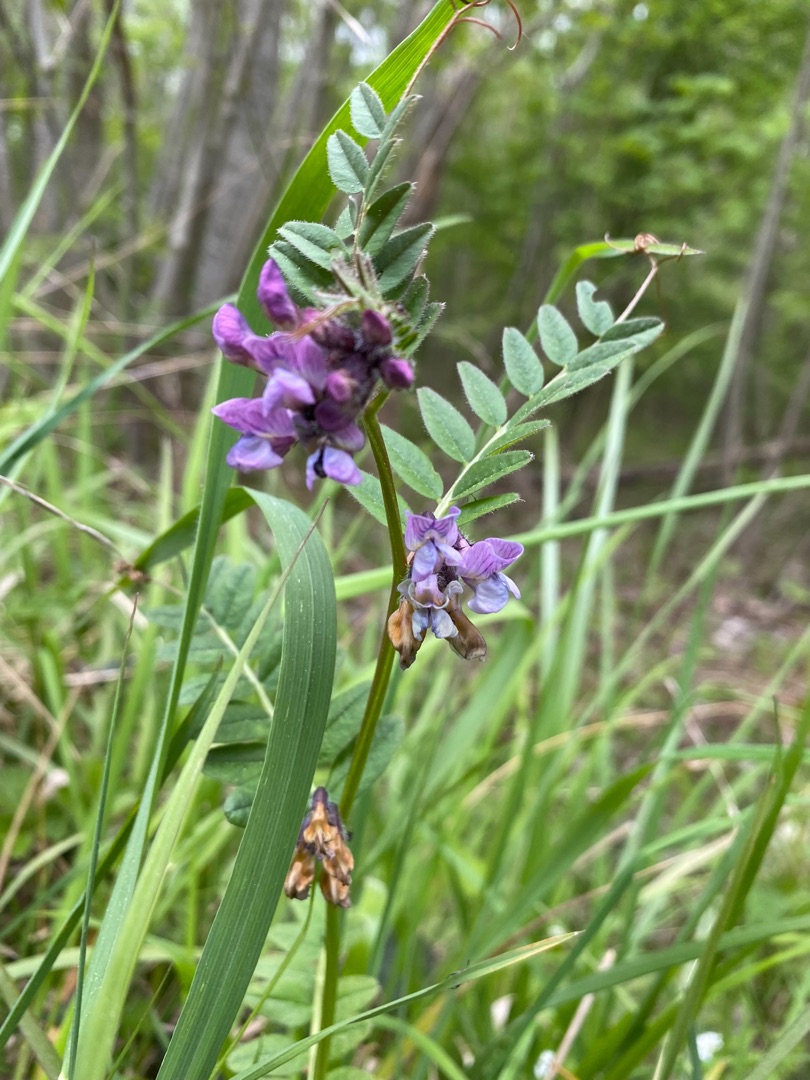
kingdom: Plantae
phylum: Tracheophyta
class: Magnoliopsida
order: Fabales
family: Fabaceae
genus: Vicia
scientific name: Vicia sepium
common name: Gærde-vikke
